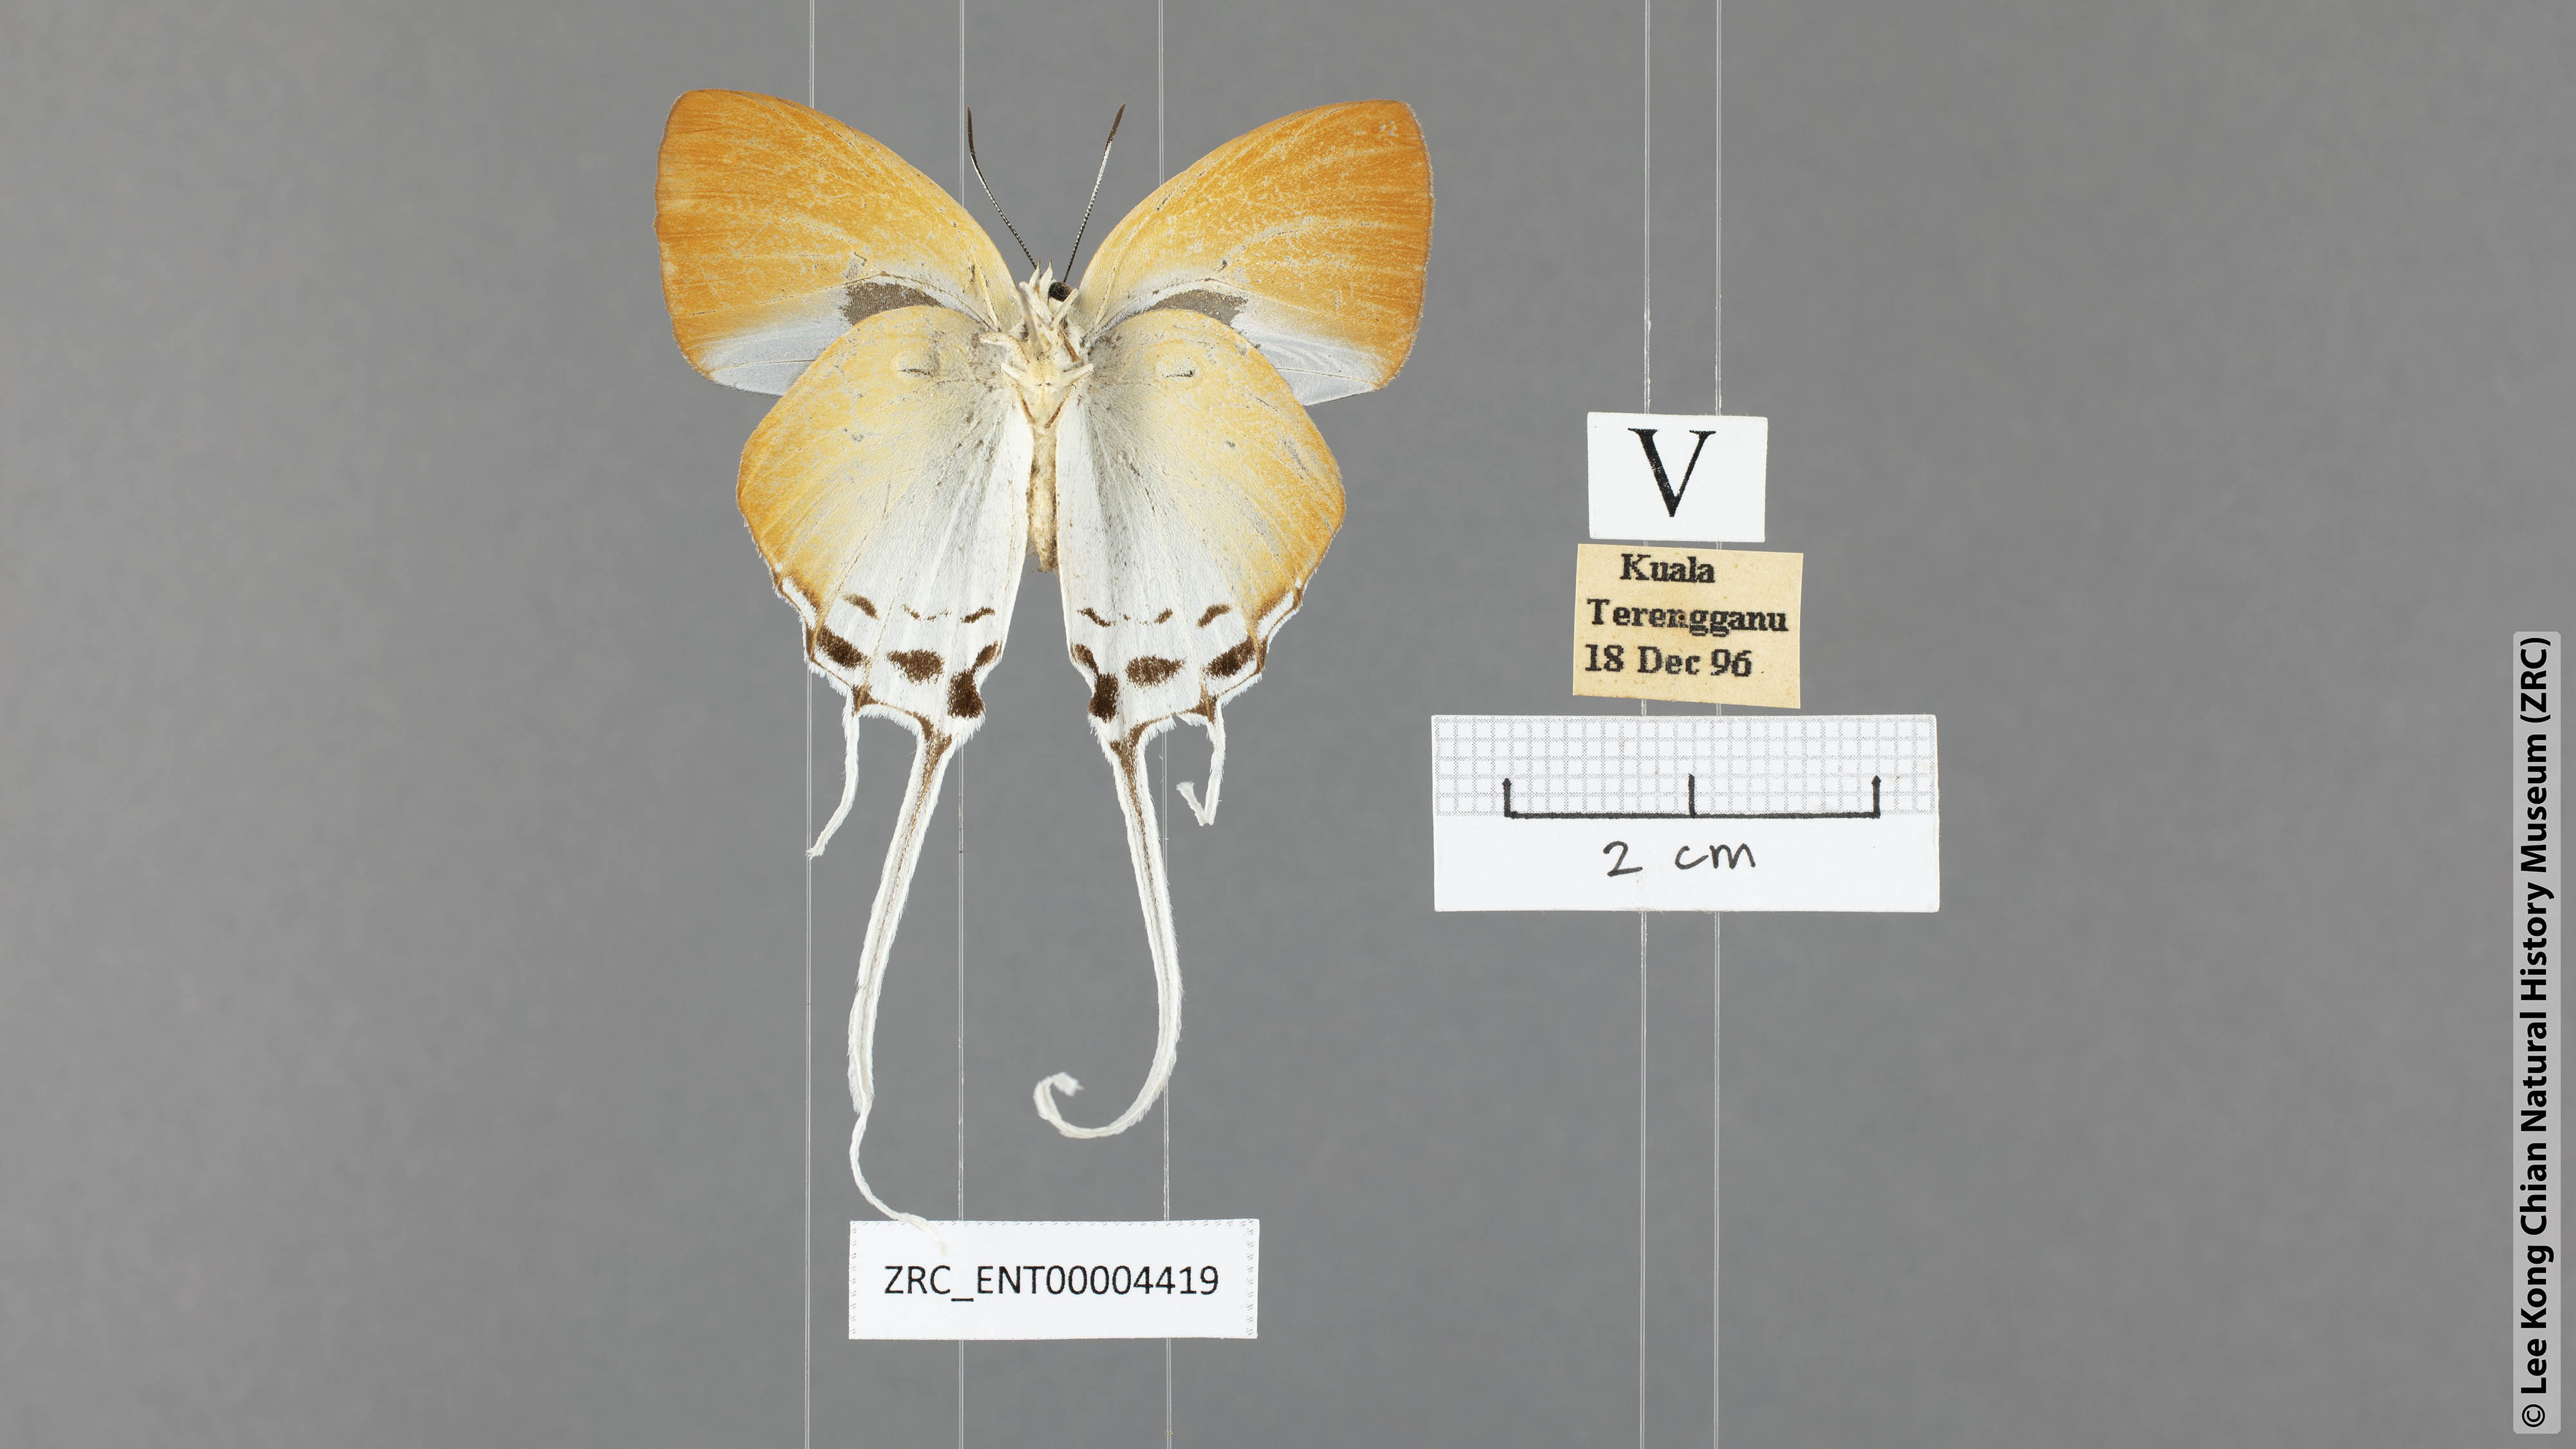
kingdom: Animalia
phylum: Arthropoda
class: Insecta
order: Lepidoptera
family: Lycaenidae
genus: Neocheritra
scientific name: Neocheritra amrita
